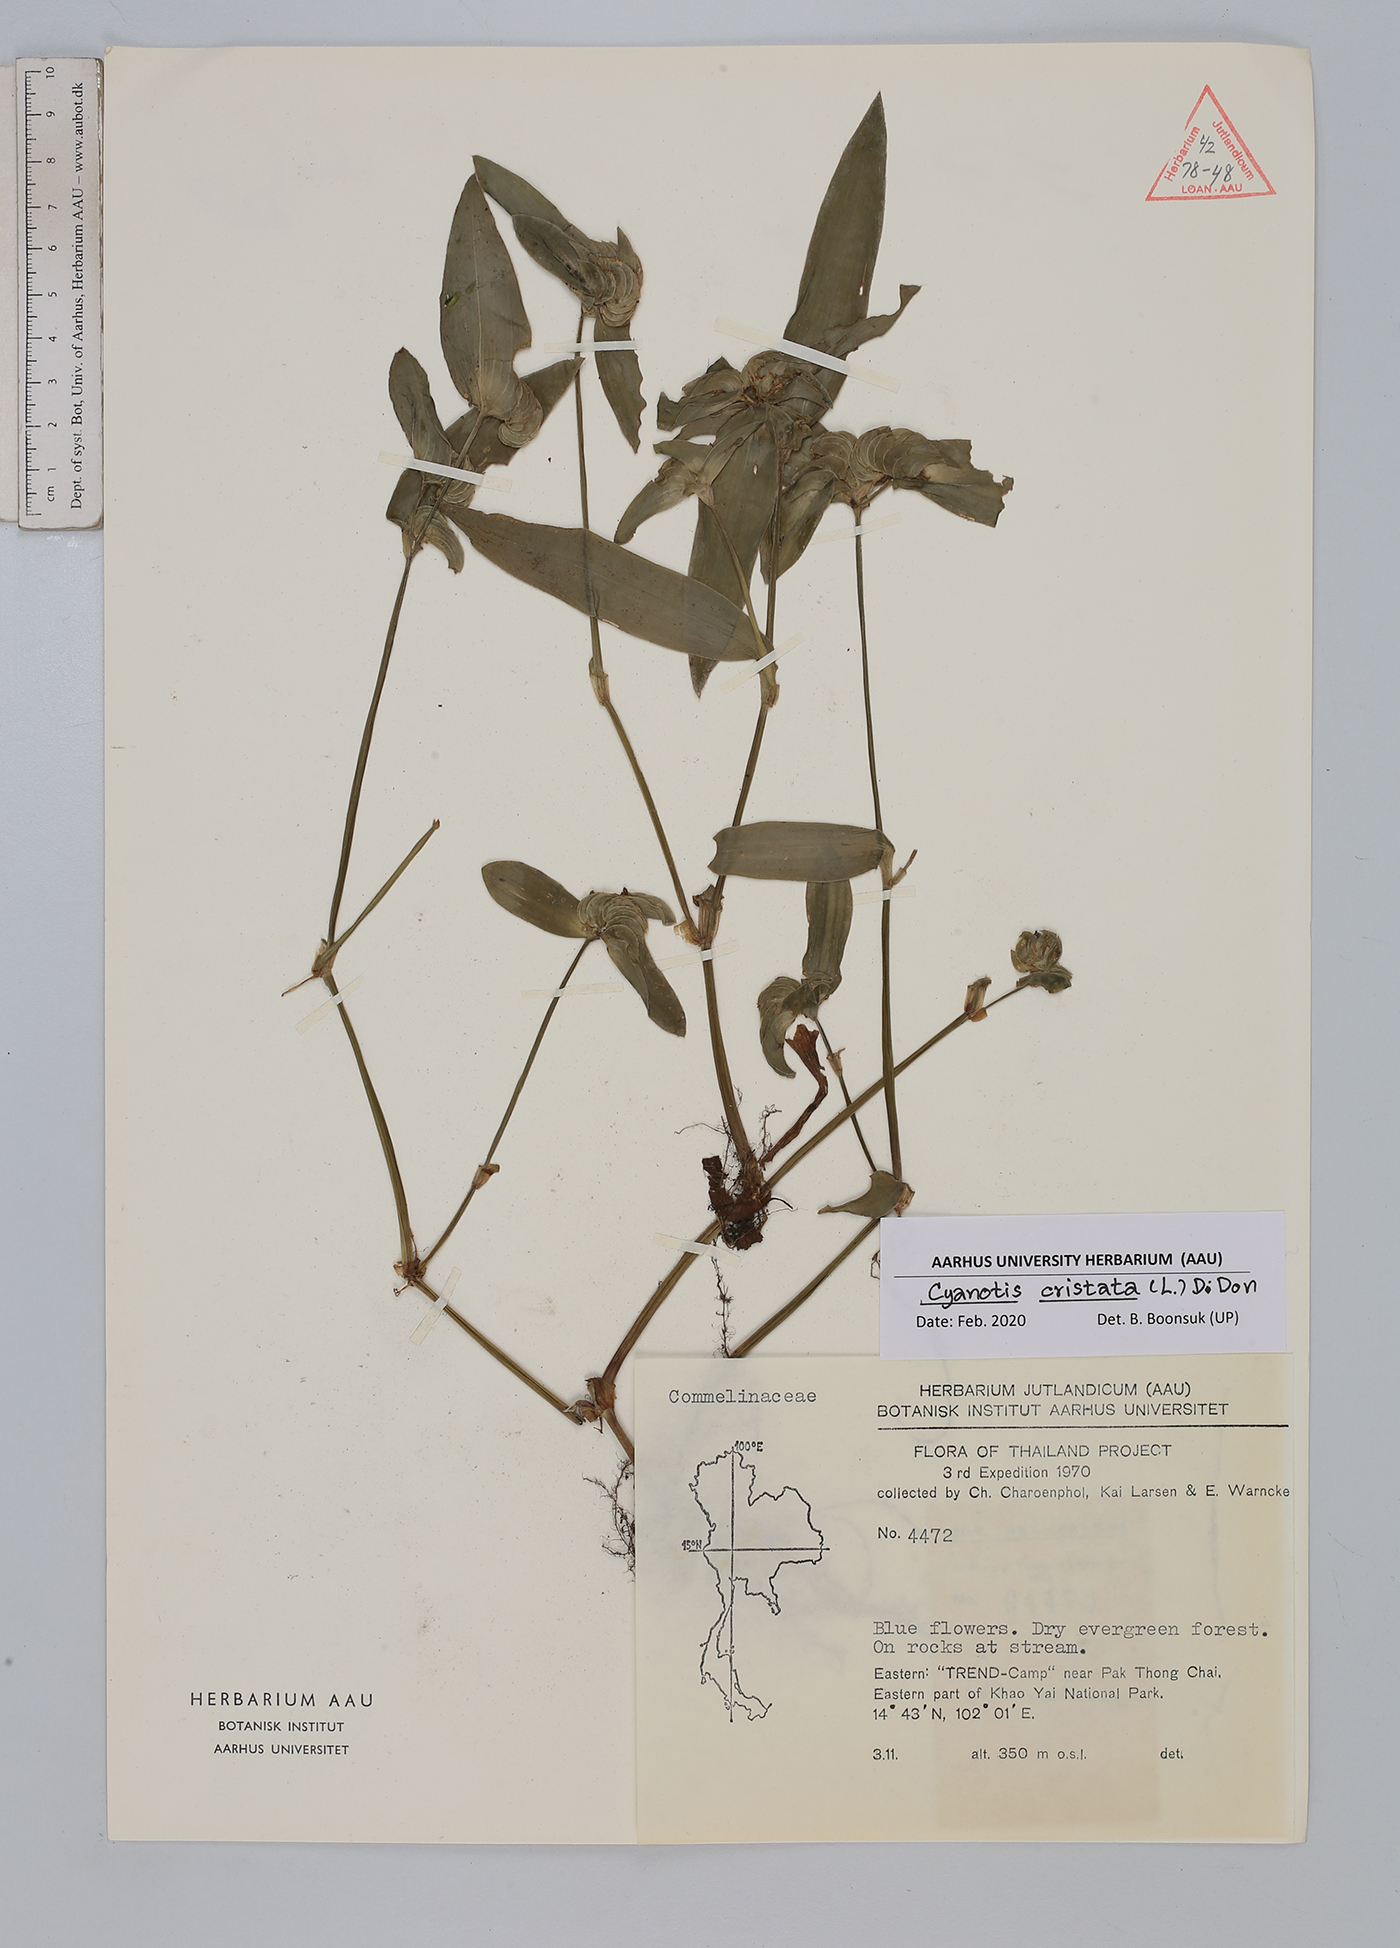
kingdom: Plantae
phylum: Tracheophyta
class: Liliopsida
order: Commelinales
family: Commelinaceae
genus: Cyanotis
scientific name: Cyanotis cristata
